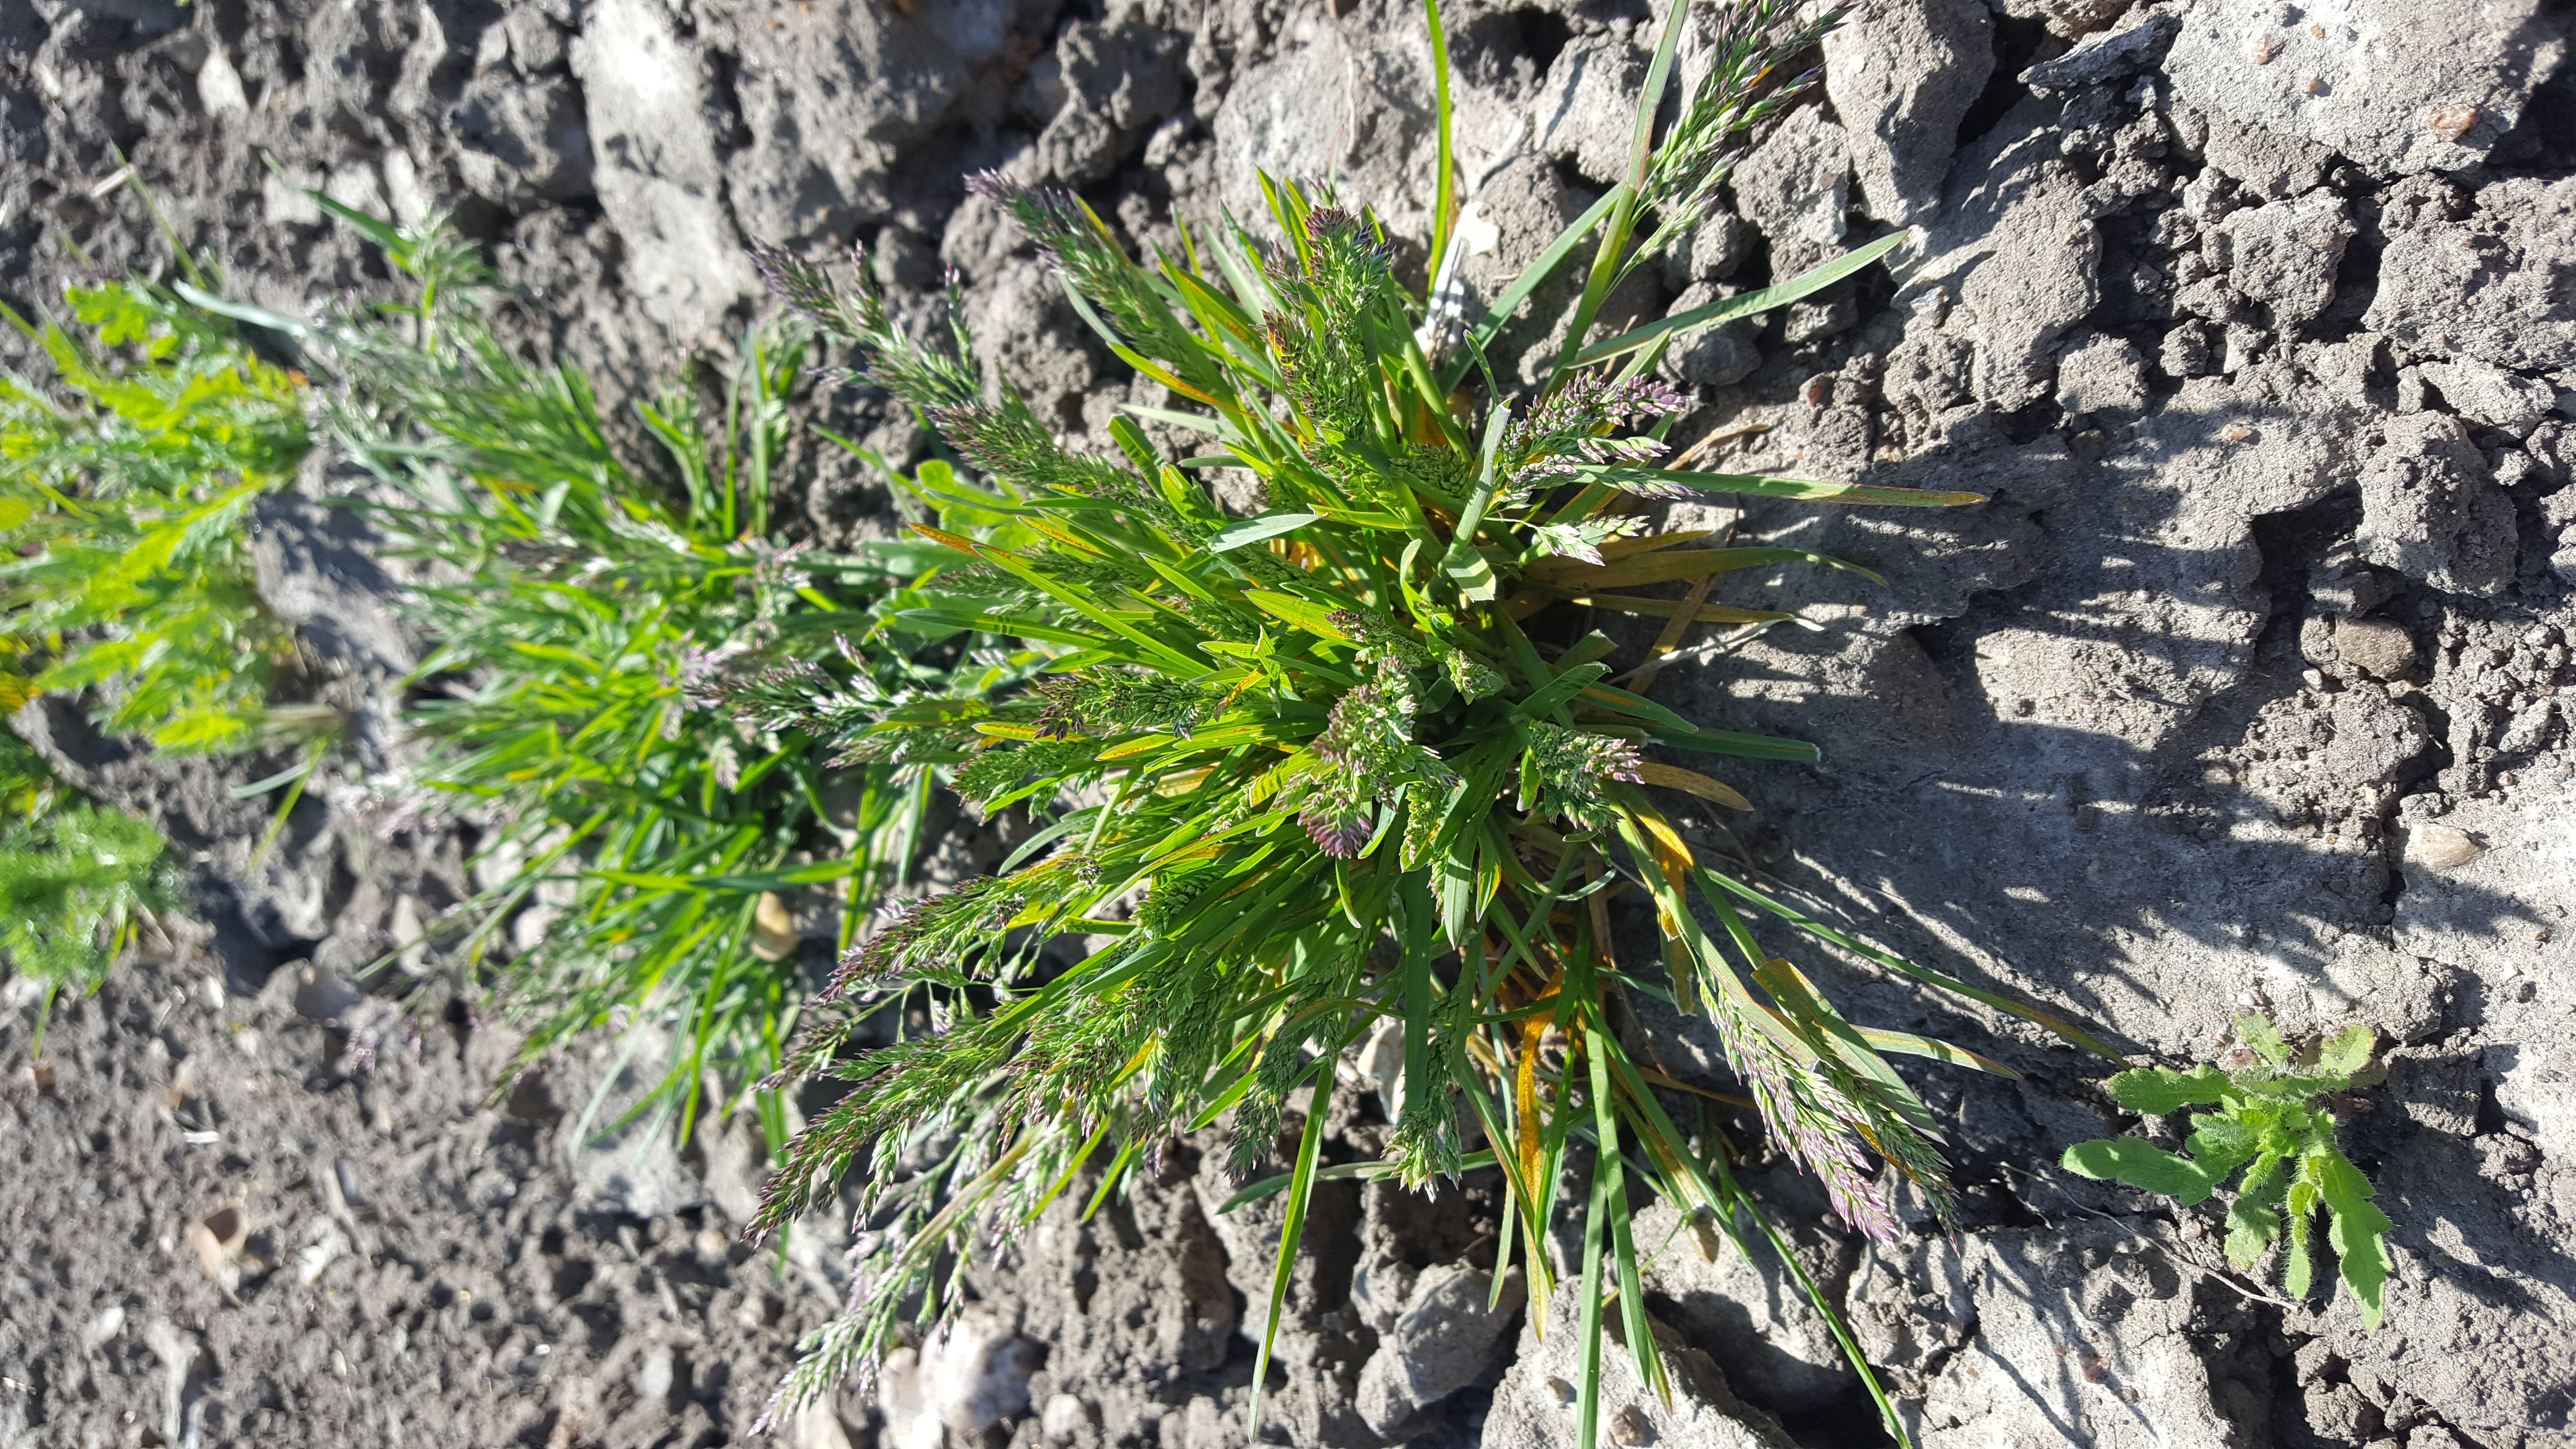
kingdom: Plantae
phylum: Tracheophyta
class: Liliopsida
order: Poales
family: Poaceae
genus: Poa
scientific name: Poa pratensis
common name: Kentucky bluegrass
